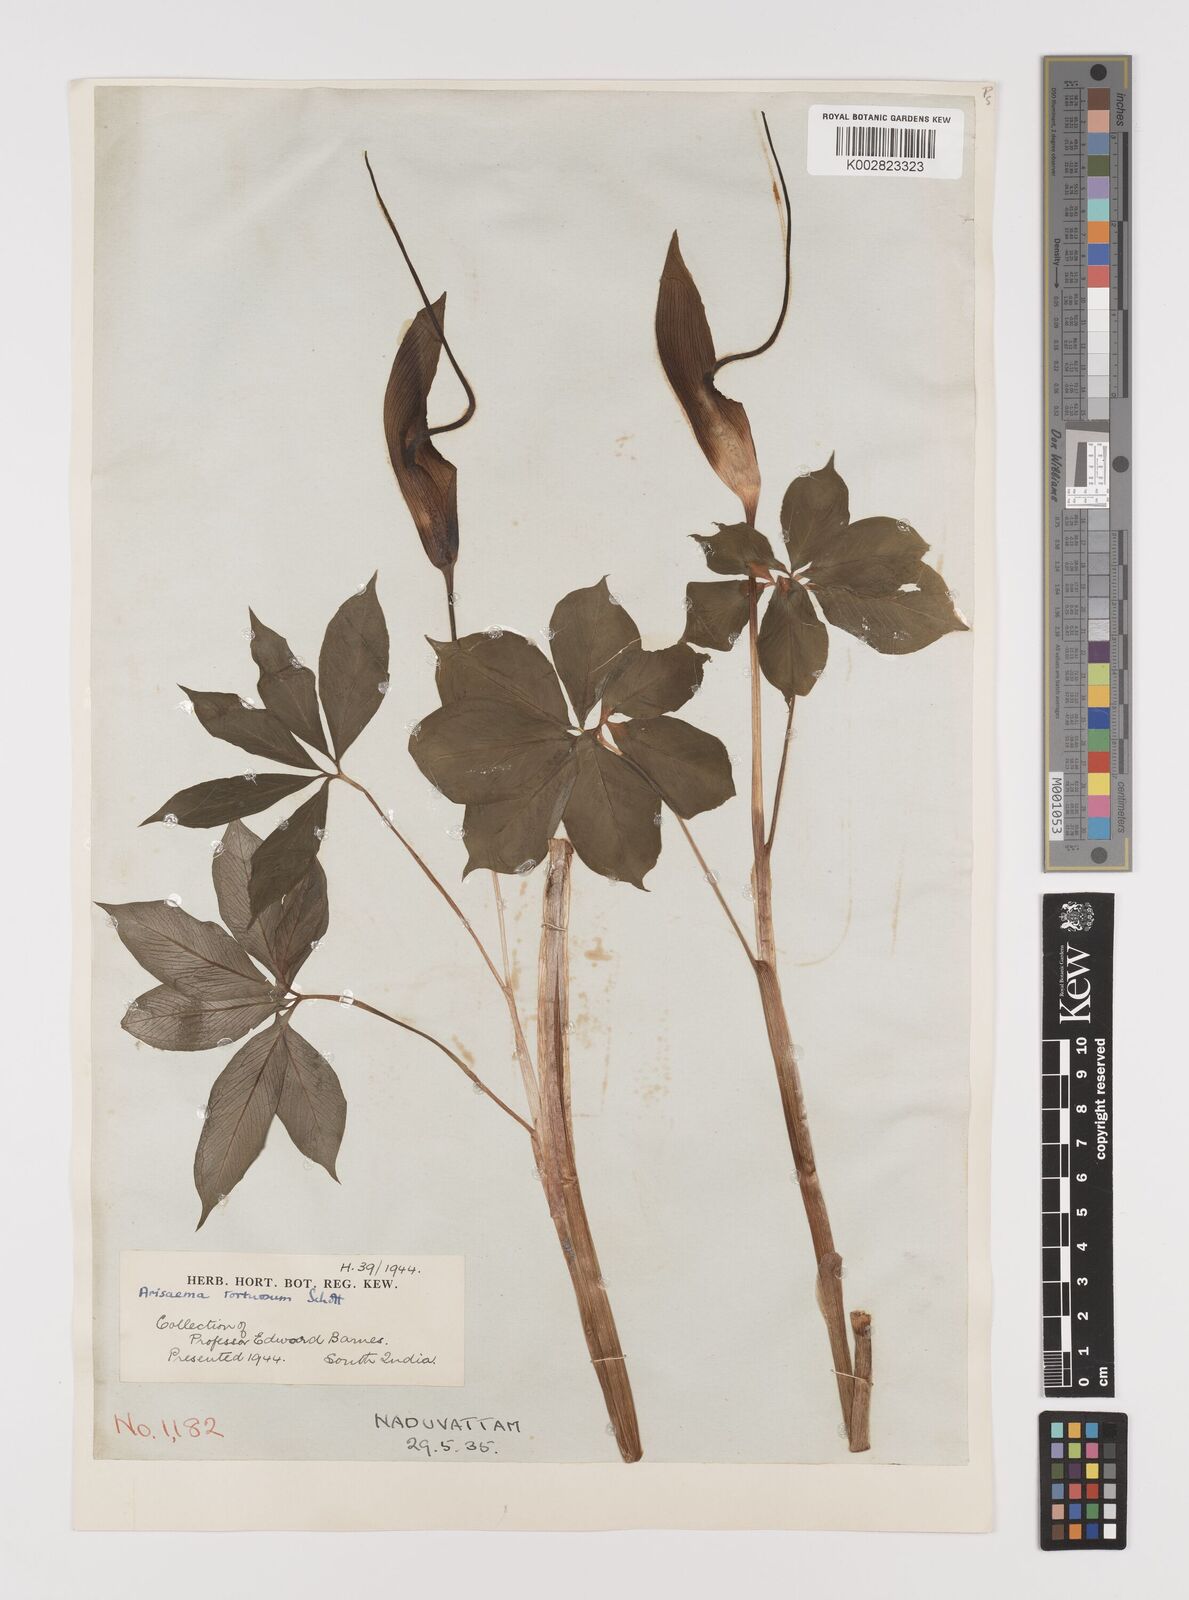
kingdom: Plantae
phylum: Tracheophyta
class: Liliopsida
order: Alismatales
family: Araceae
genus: Arisaema
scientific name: Arisaema tortuosum
